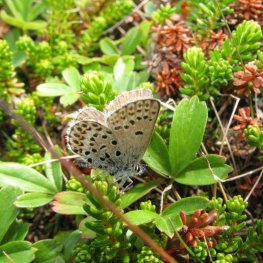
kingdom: Animalia
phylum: Arthropoda
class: Insecta
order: Lepidoptera
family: Lycaenidae
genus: Lycaeides
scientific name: Lycaeides idas
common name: Northern Blue
